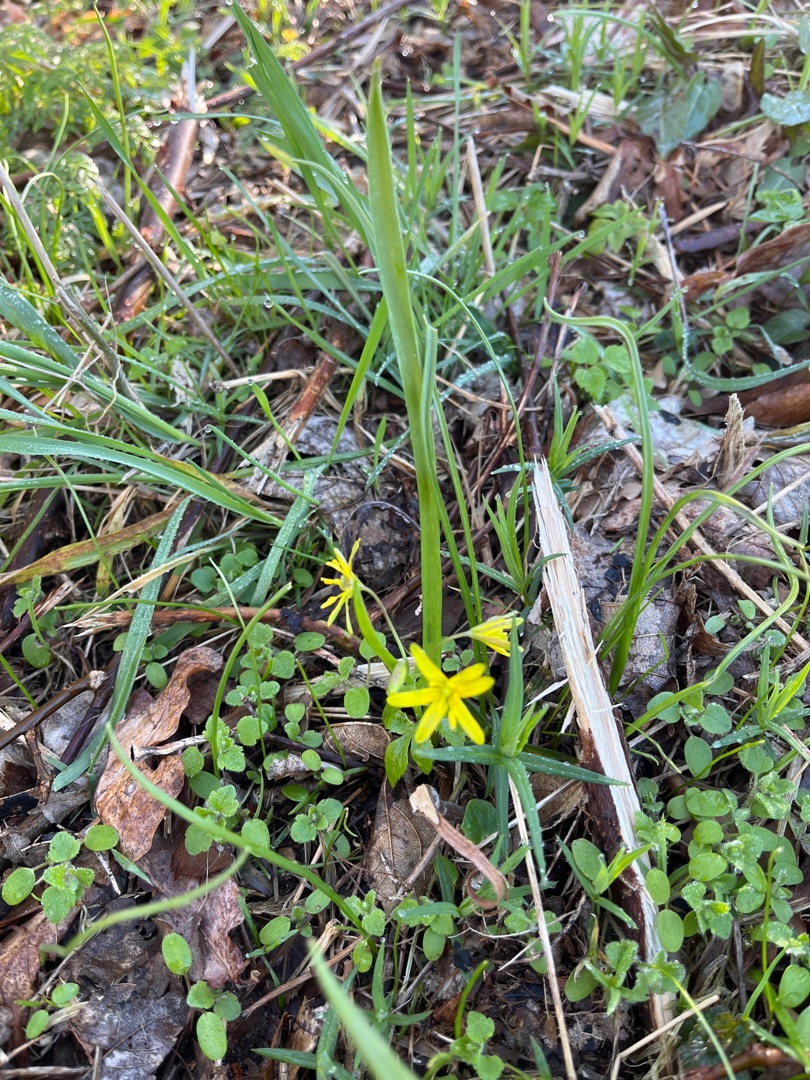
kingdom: Plantae
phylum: Tracheophyta
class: Liliopsida
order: Liliales
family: Liliaceae
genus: Gagea
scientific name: Gagea lutea
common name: Almindelig guldstjerne
